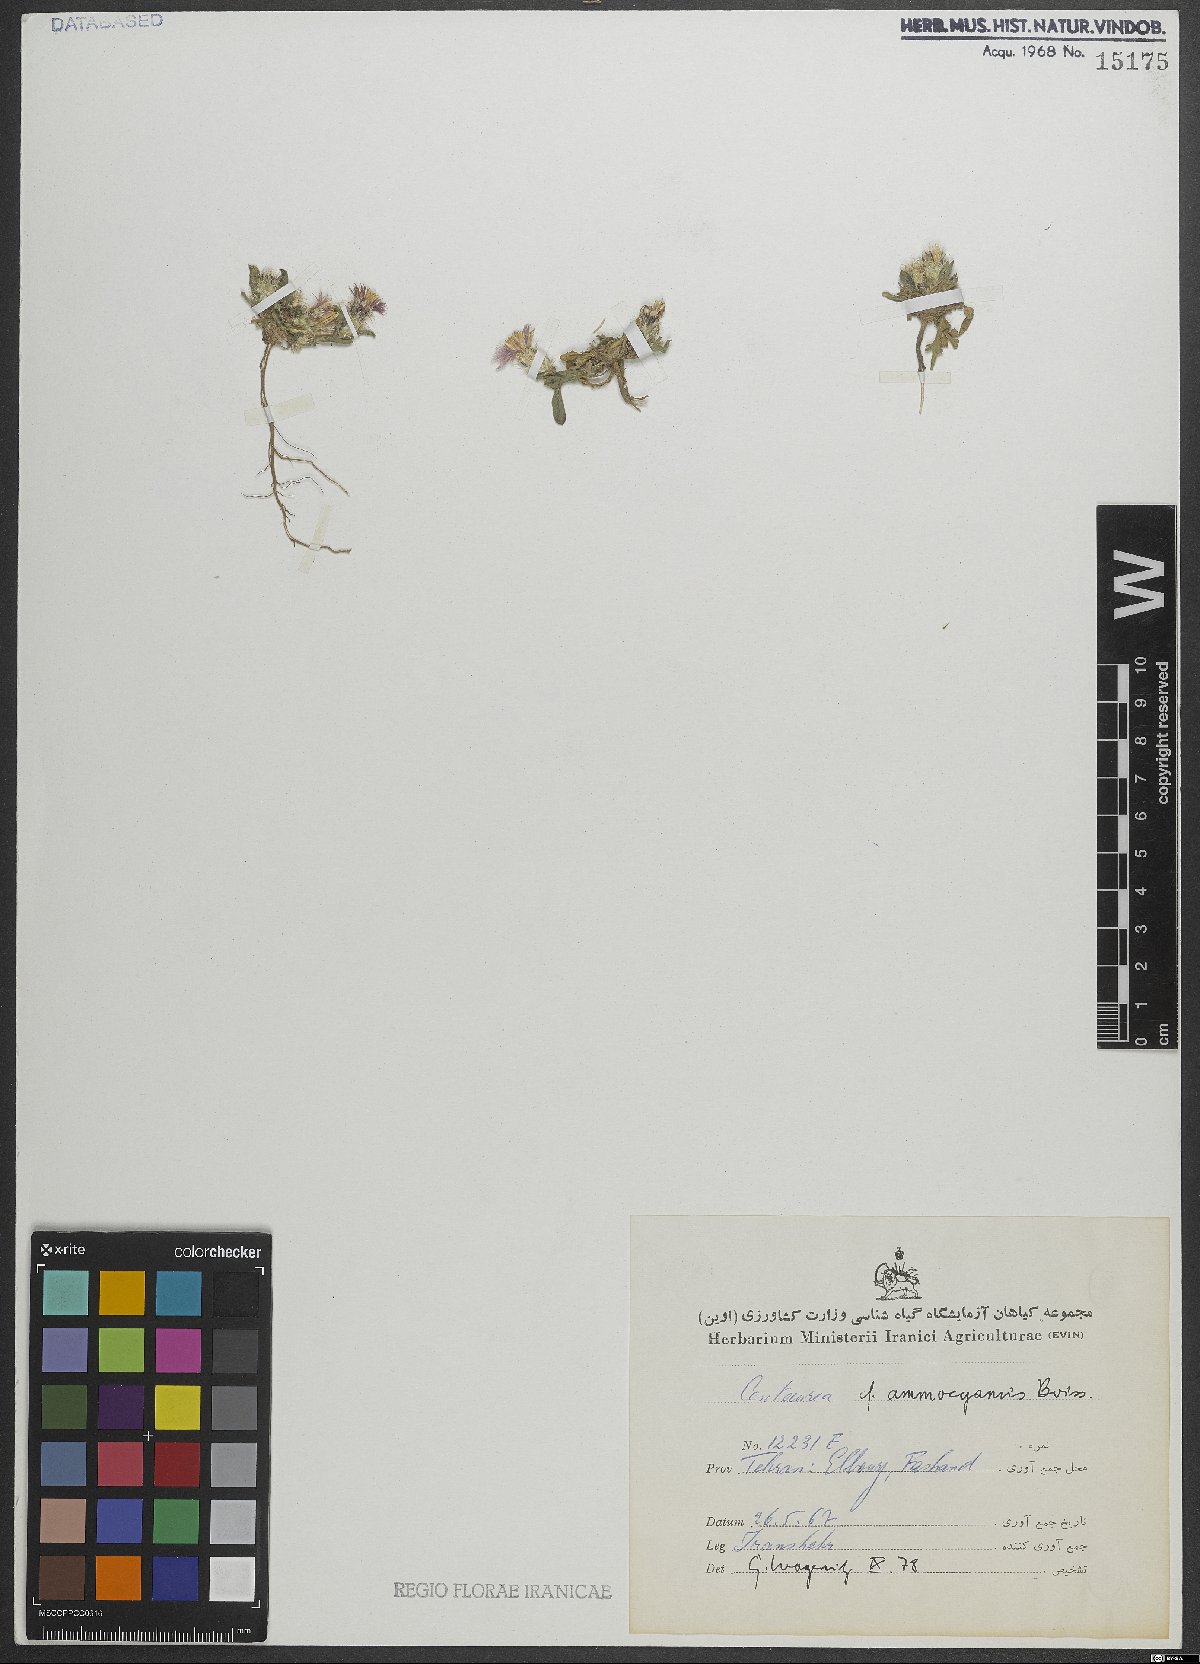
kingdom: Plantae
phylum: Tracheophyta
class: Magnoliopsida
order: Asterales
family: Asteraceae
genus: Centaurea
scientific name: Centaurea ammocyanus
